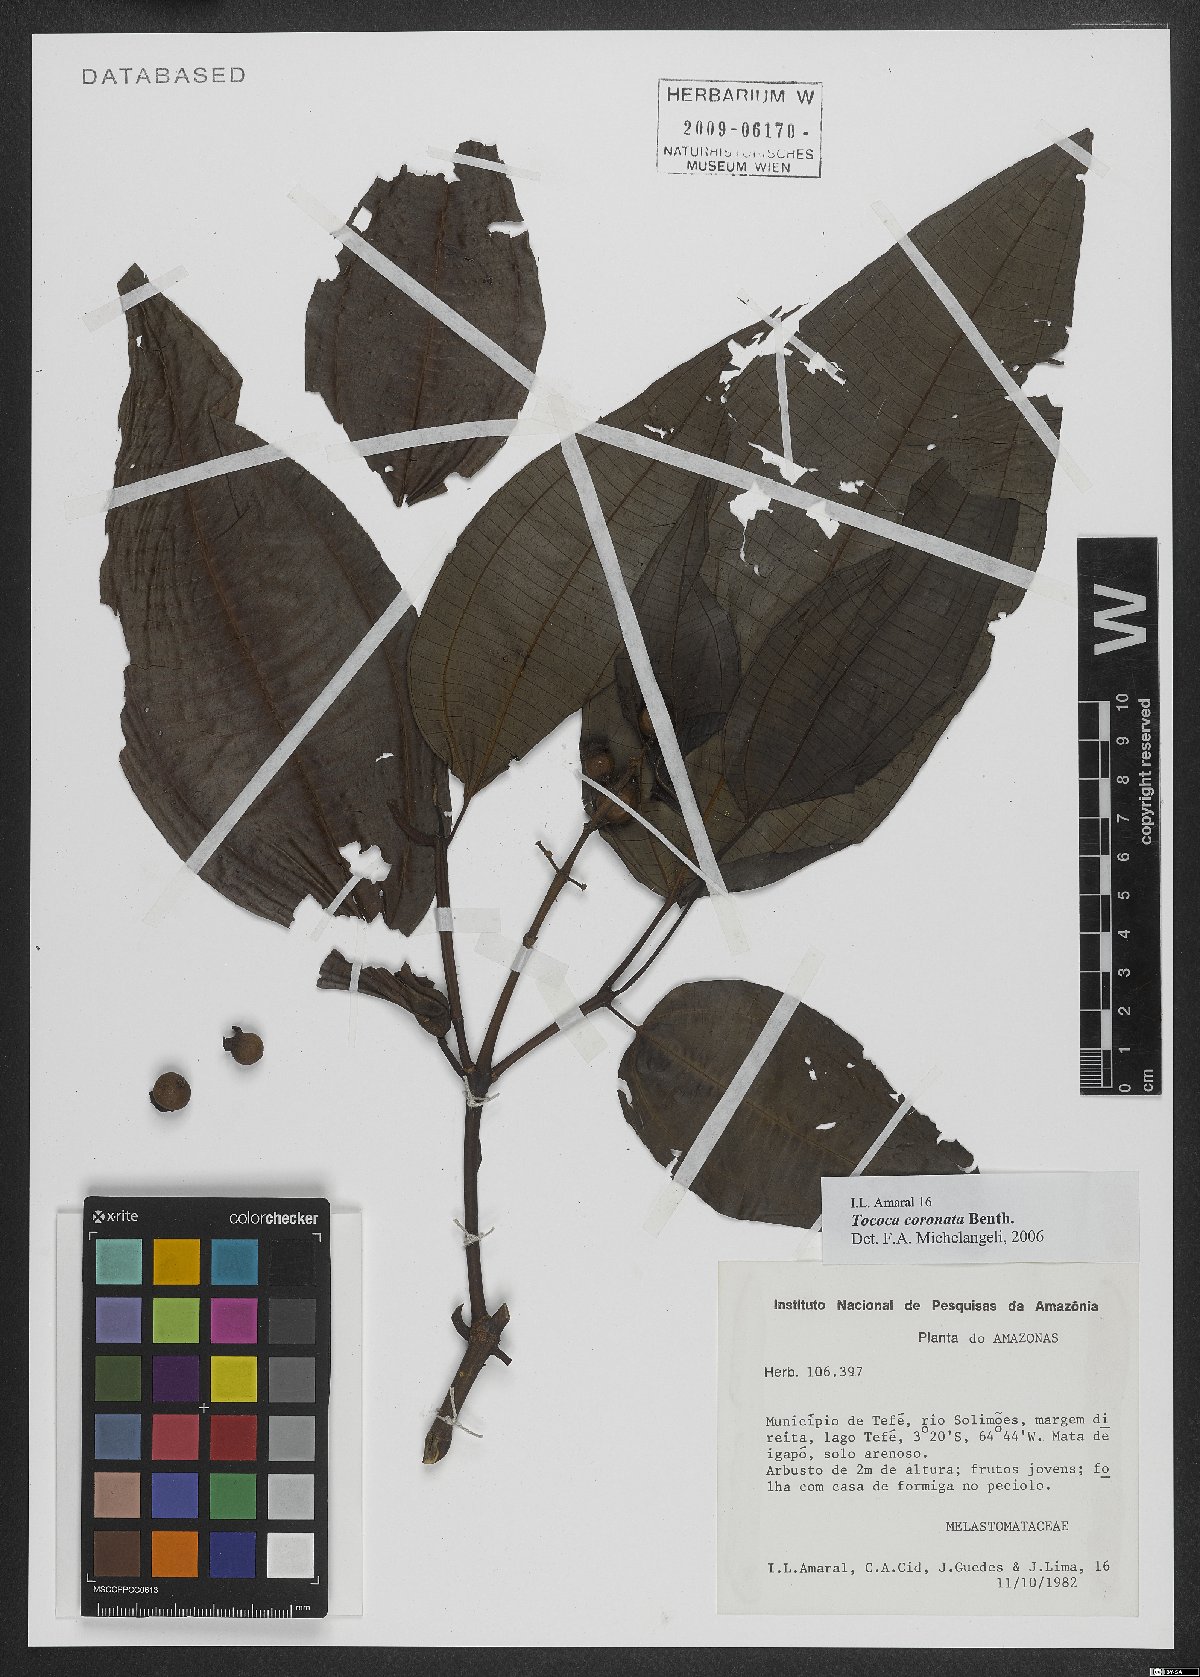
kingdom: Plantae
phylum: Tracheophyta
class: Magnoliopsida
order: Myrtales
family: Melastomataceae
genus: Miconia
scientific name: Miconia tococoronata
